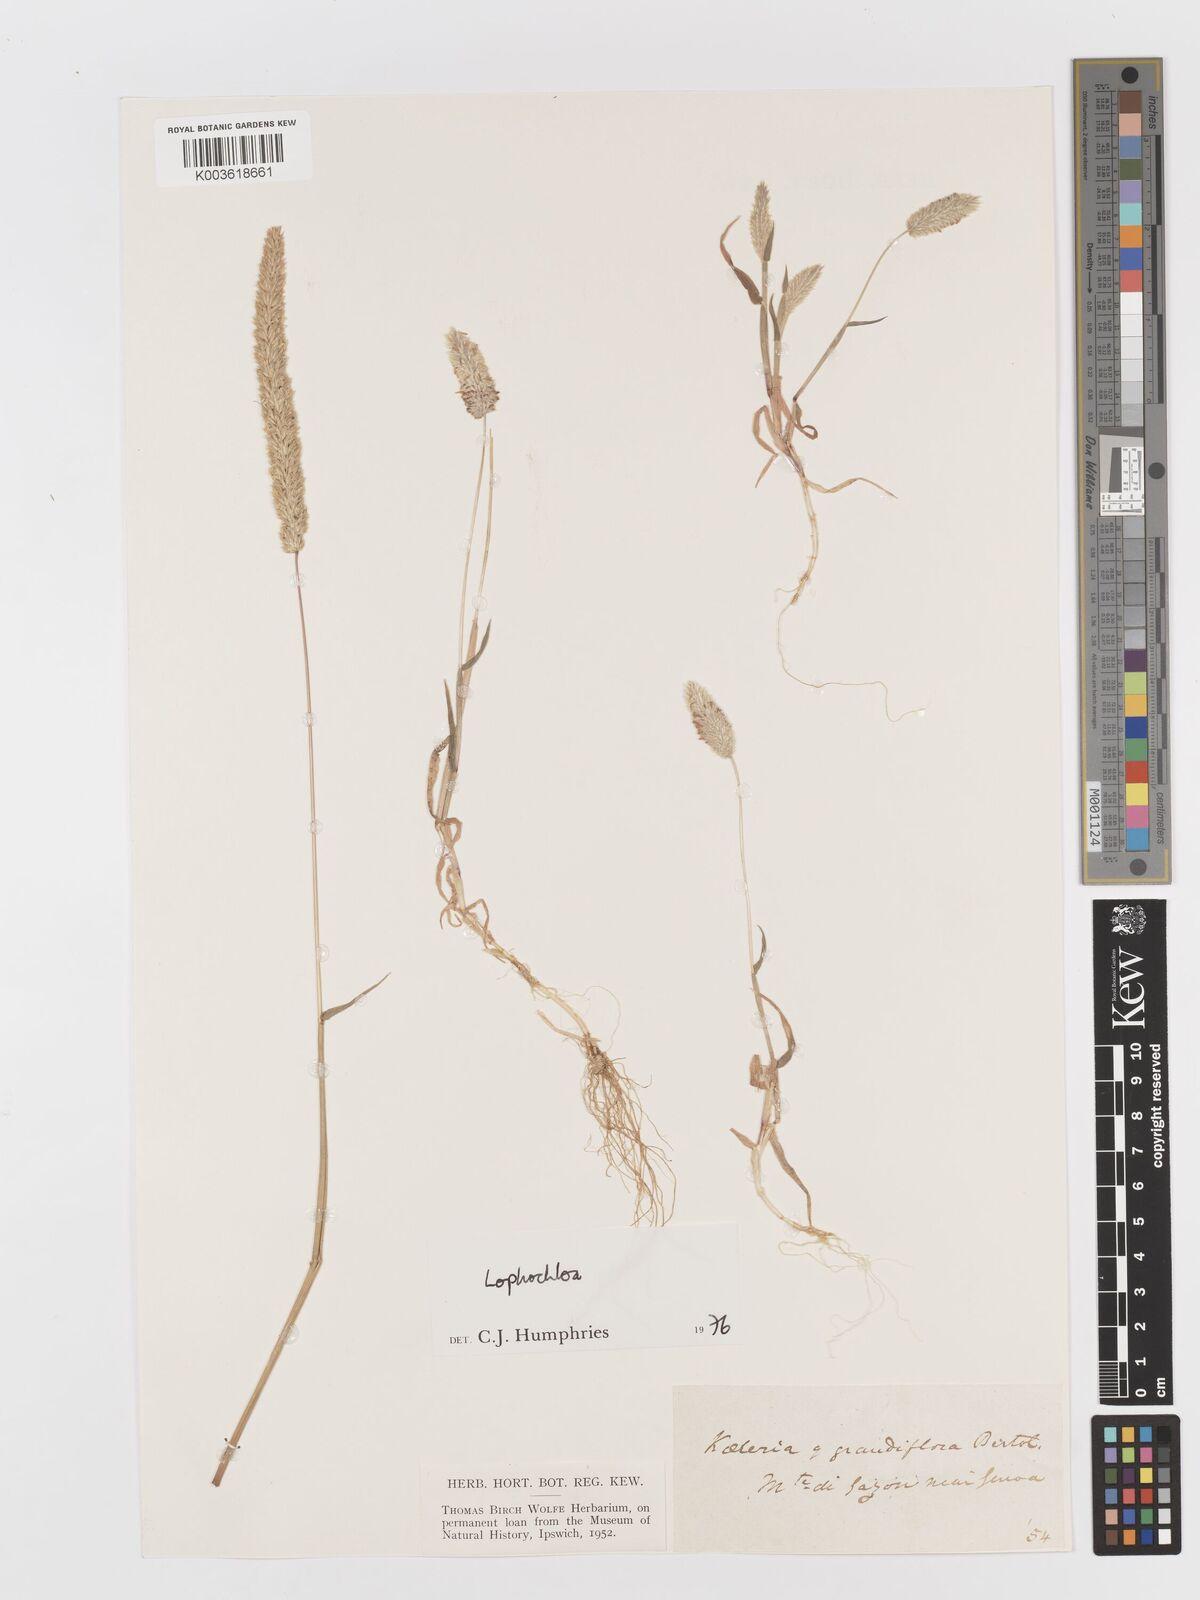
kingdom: Plantae
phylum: Tracheophyta
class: Liliopsida
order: Poales
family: Poaceae
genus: Rostraria
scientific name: Rostraria
